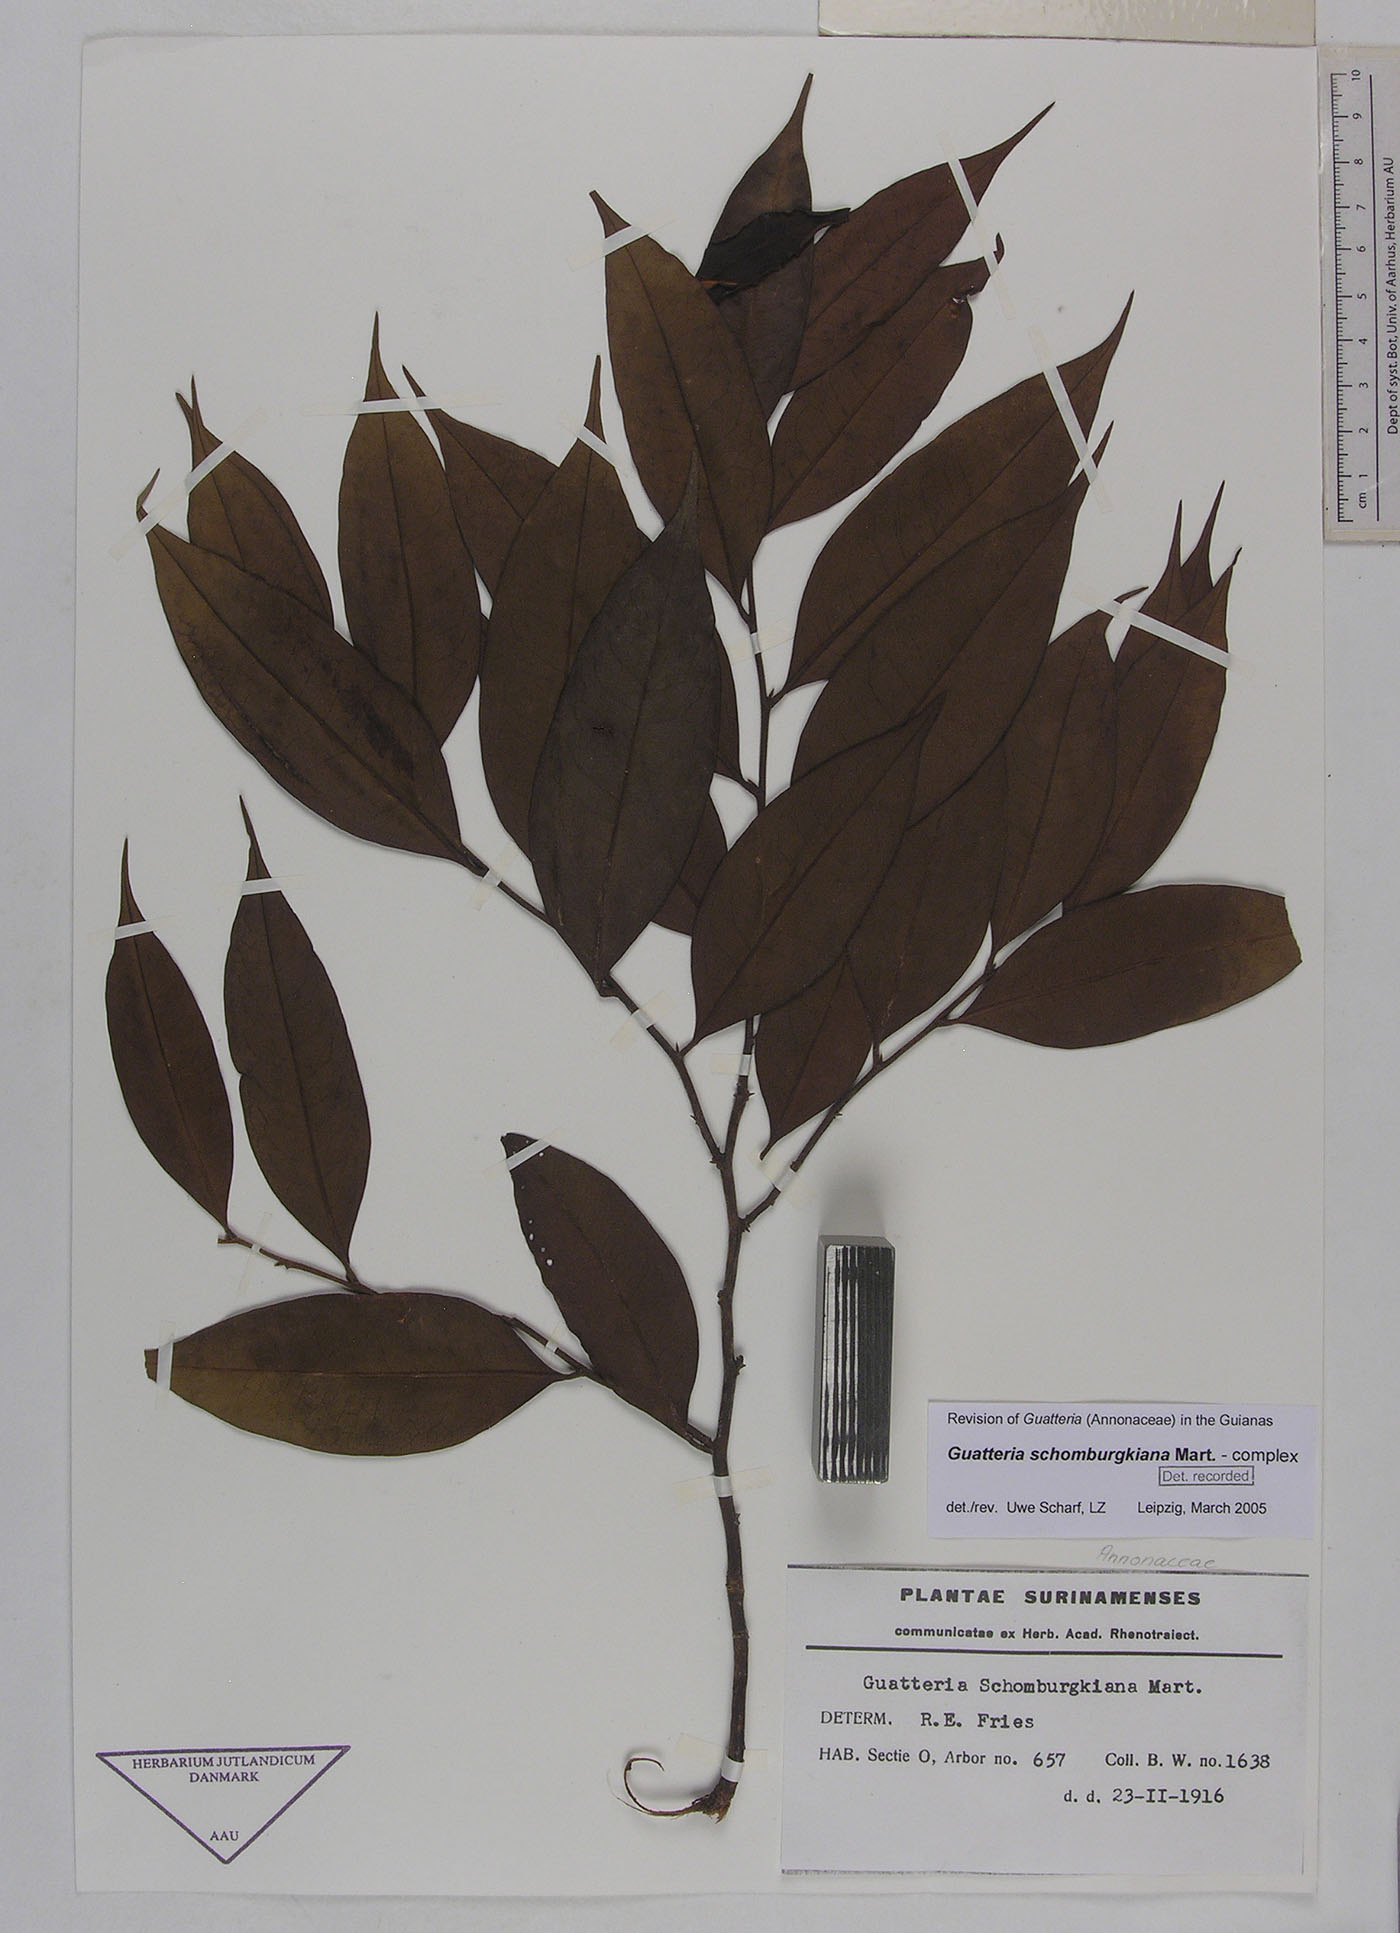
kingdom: Plantae
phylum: Tracheophyta
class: Magnoliopsida
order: Magnoliales
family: Annonaceae
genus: Guatteria
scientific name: Guatteria schomburgkiana
